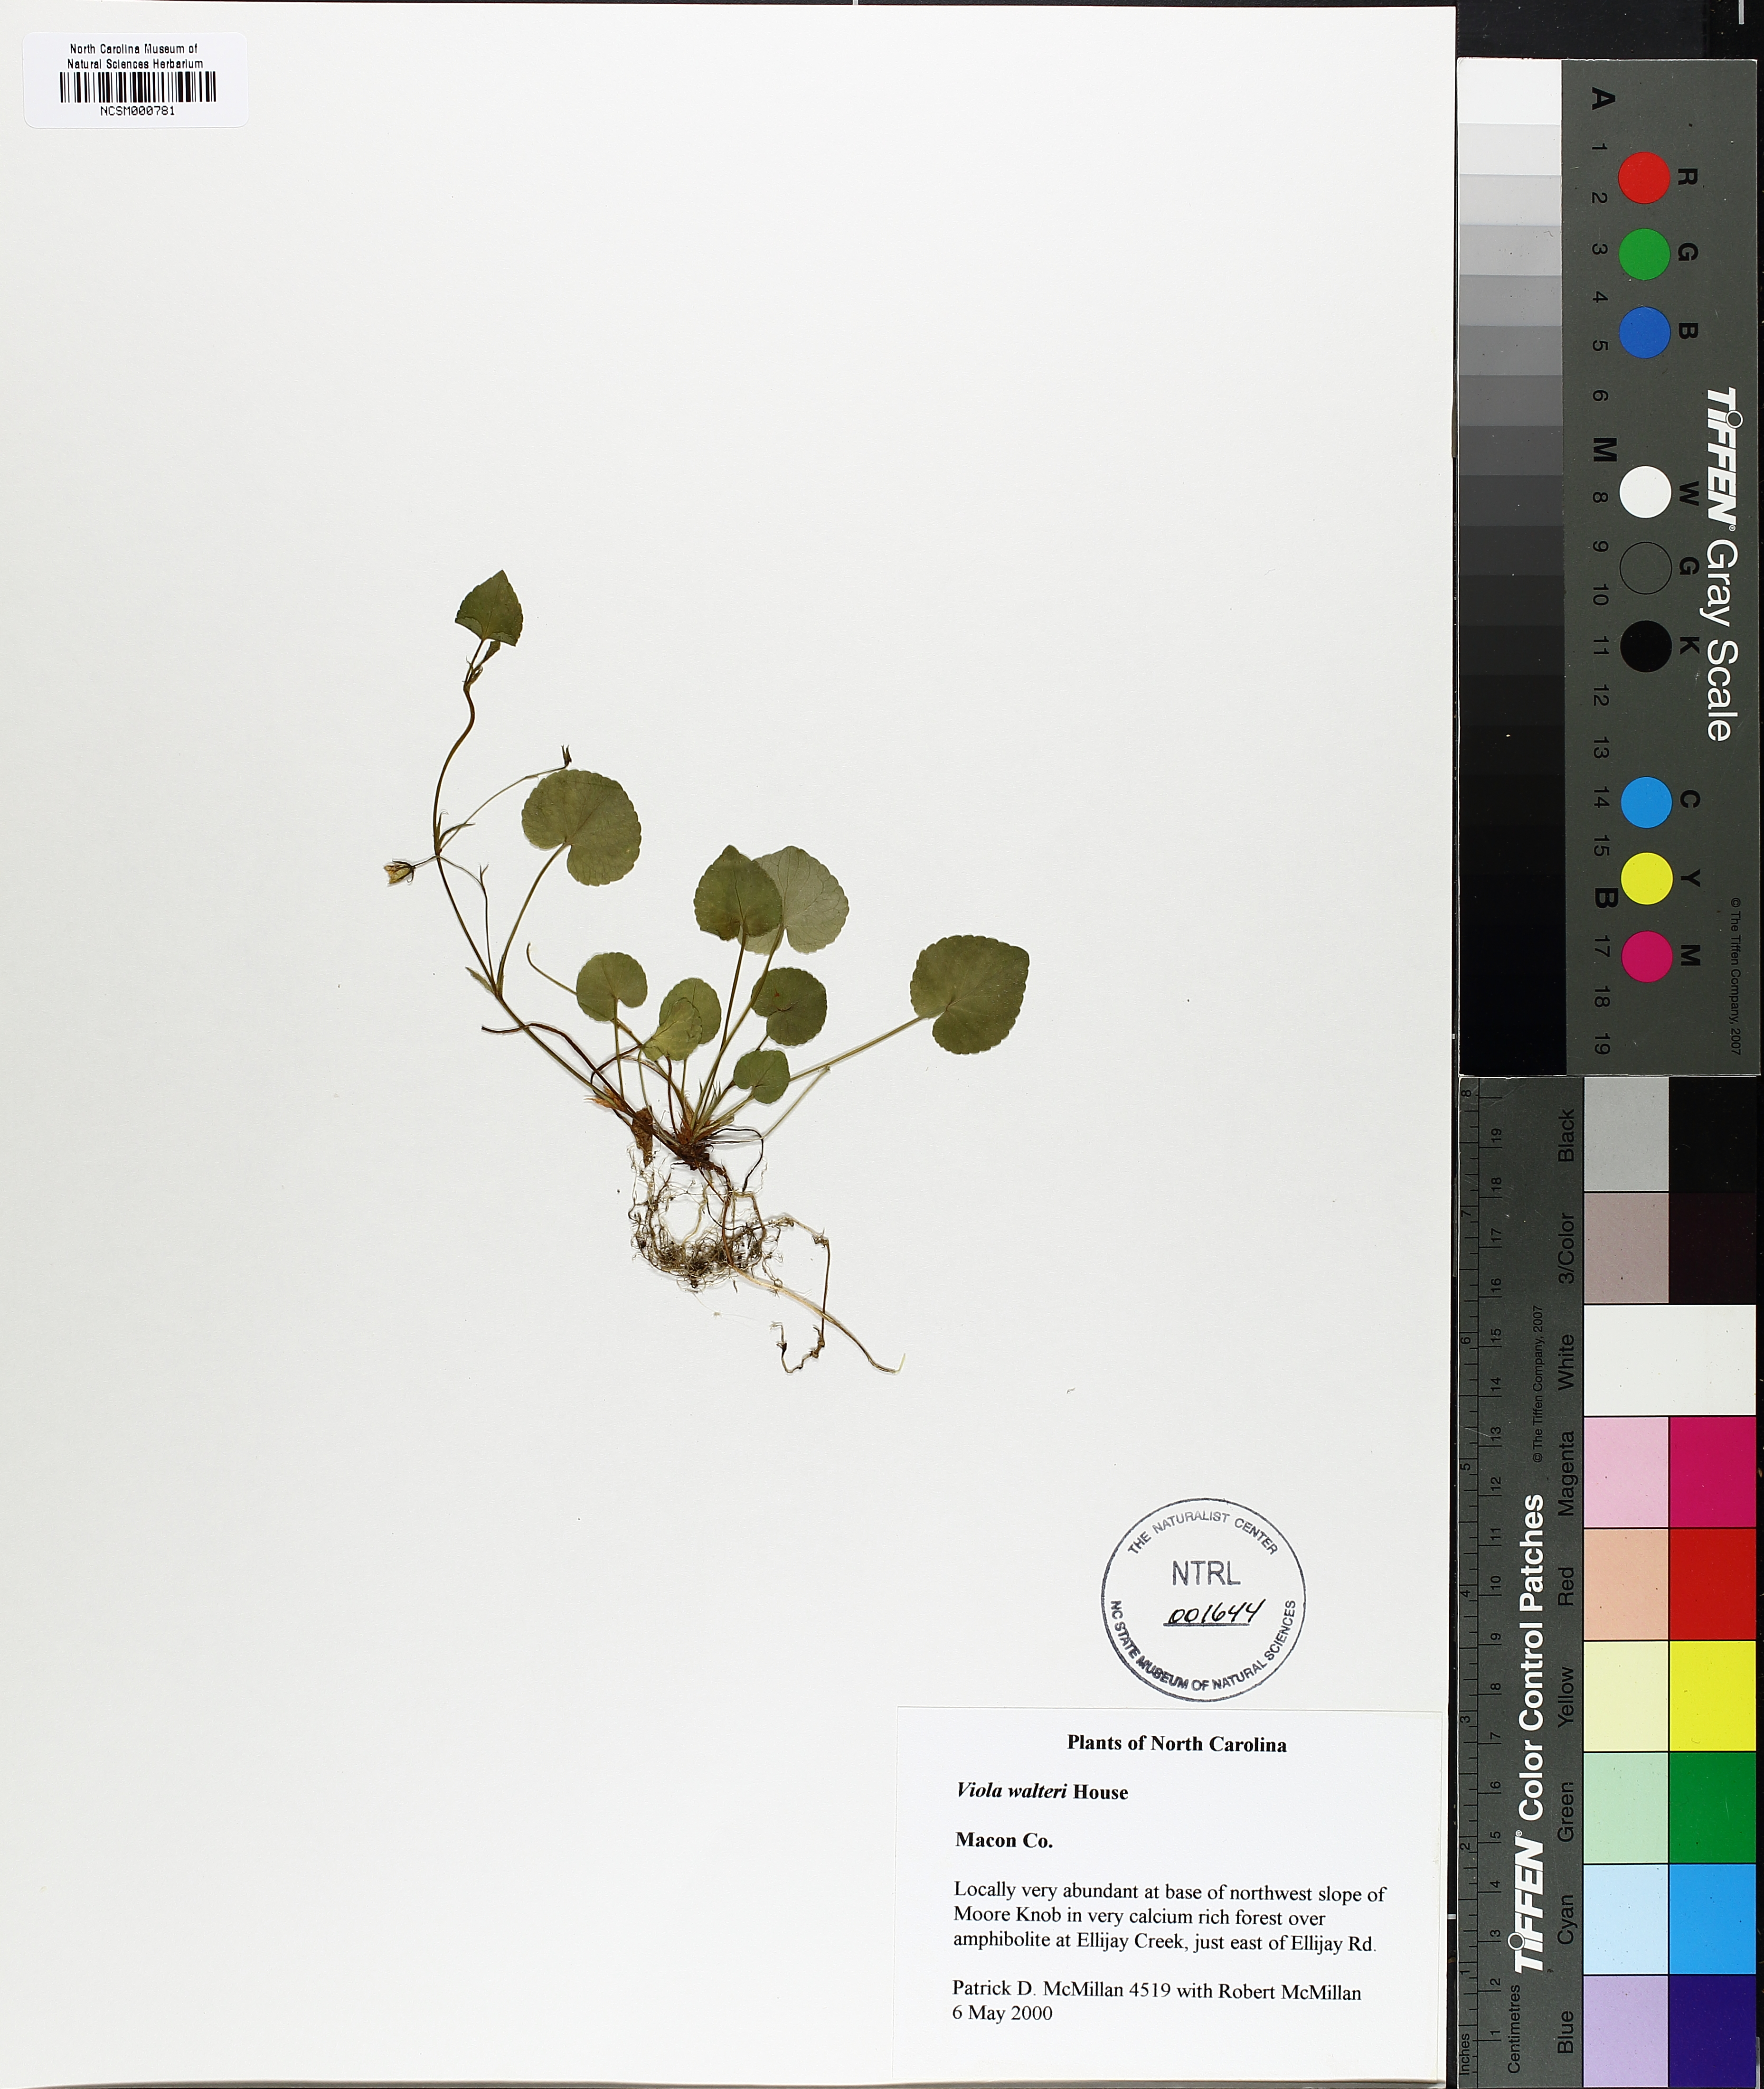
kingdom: Plantae
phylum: Tracheophyta
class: Magnoliopsida
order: Malpighiales
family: Violaceae
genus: Viola
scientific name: Viola walteri
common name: Prostrate southern violet
